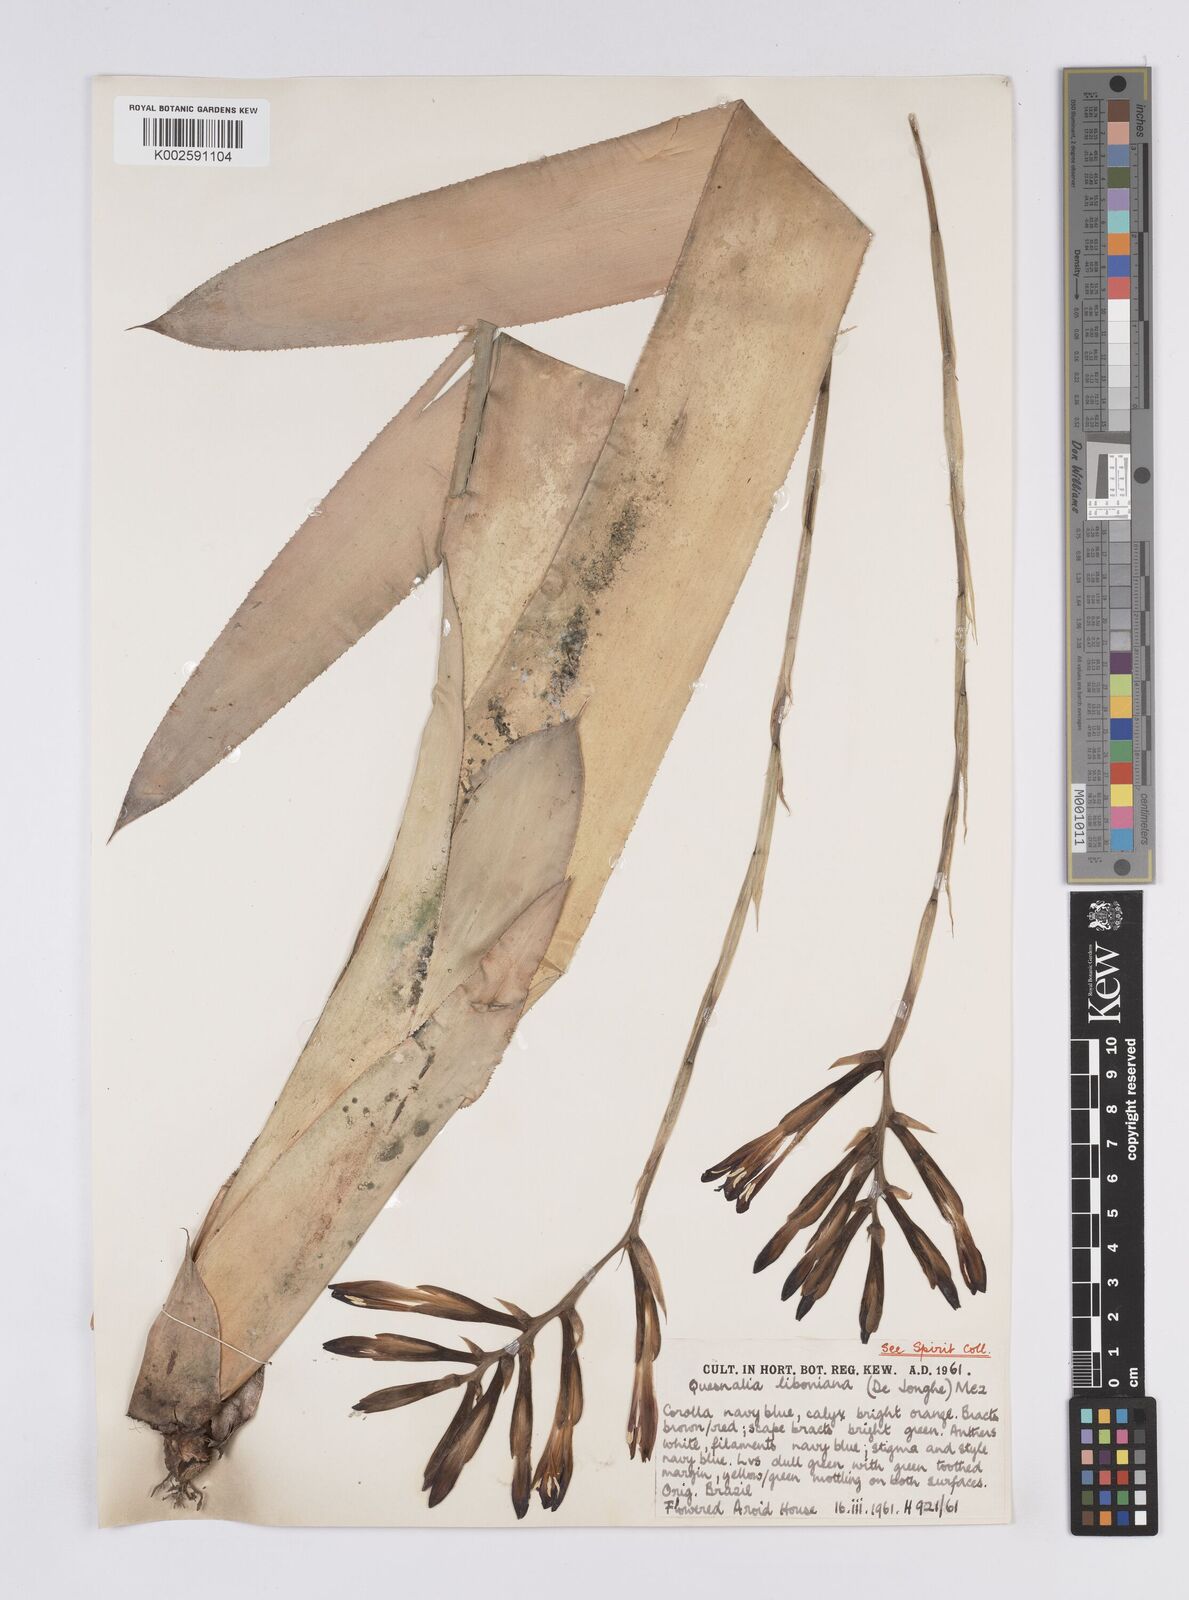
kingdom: Plantae
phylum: Tracheophyta
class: Liliopsida
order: Poales
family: Bromeliaceae
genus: Quesnelia
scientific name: Quesnelia liboniana
